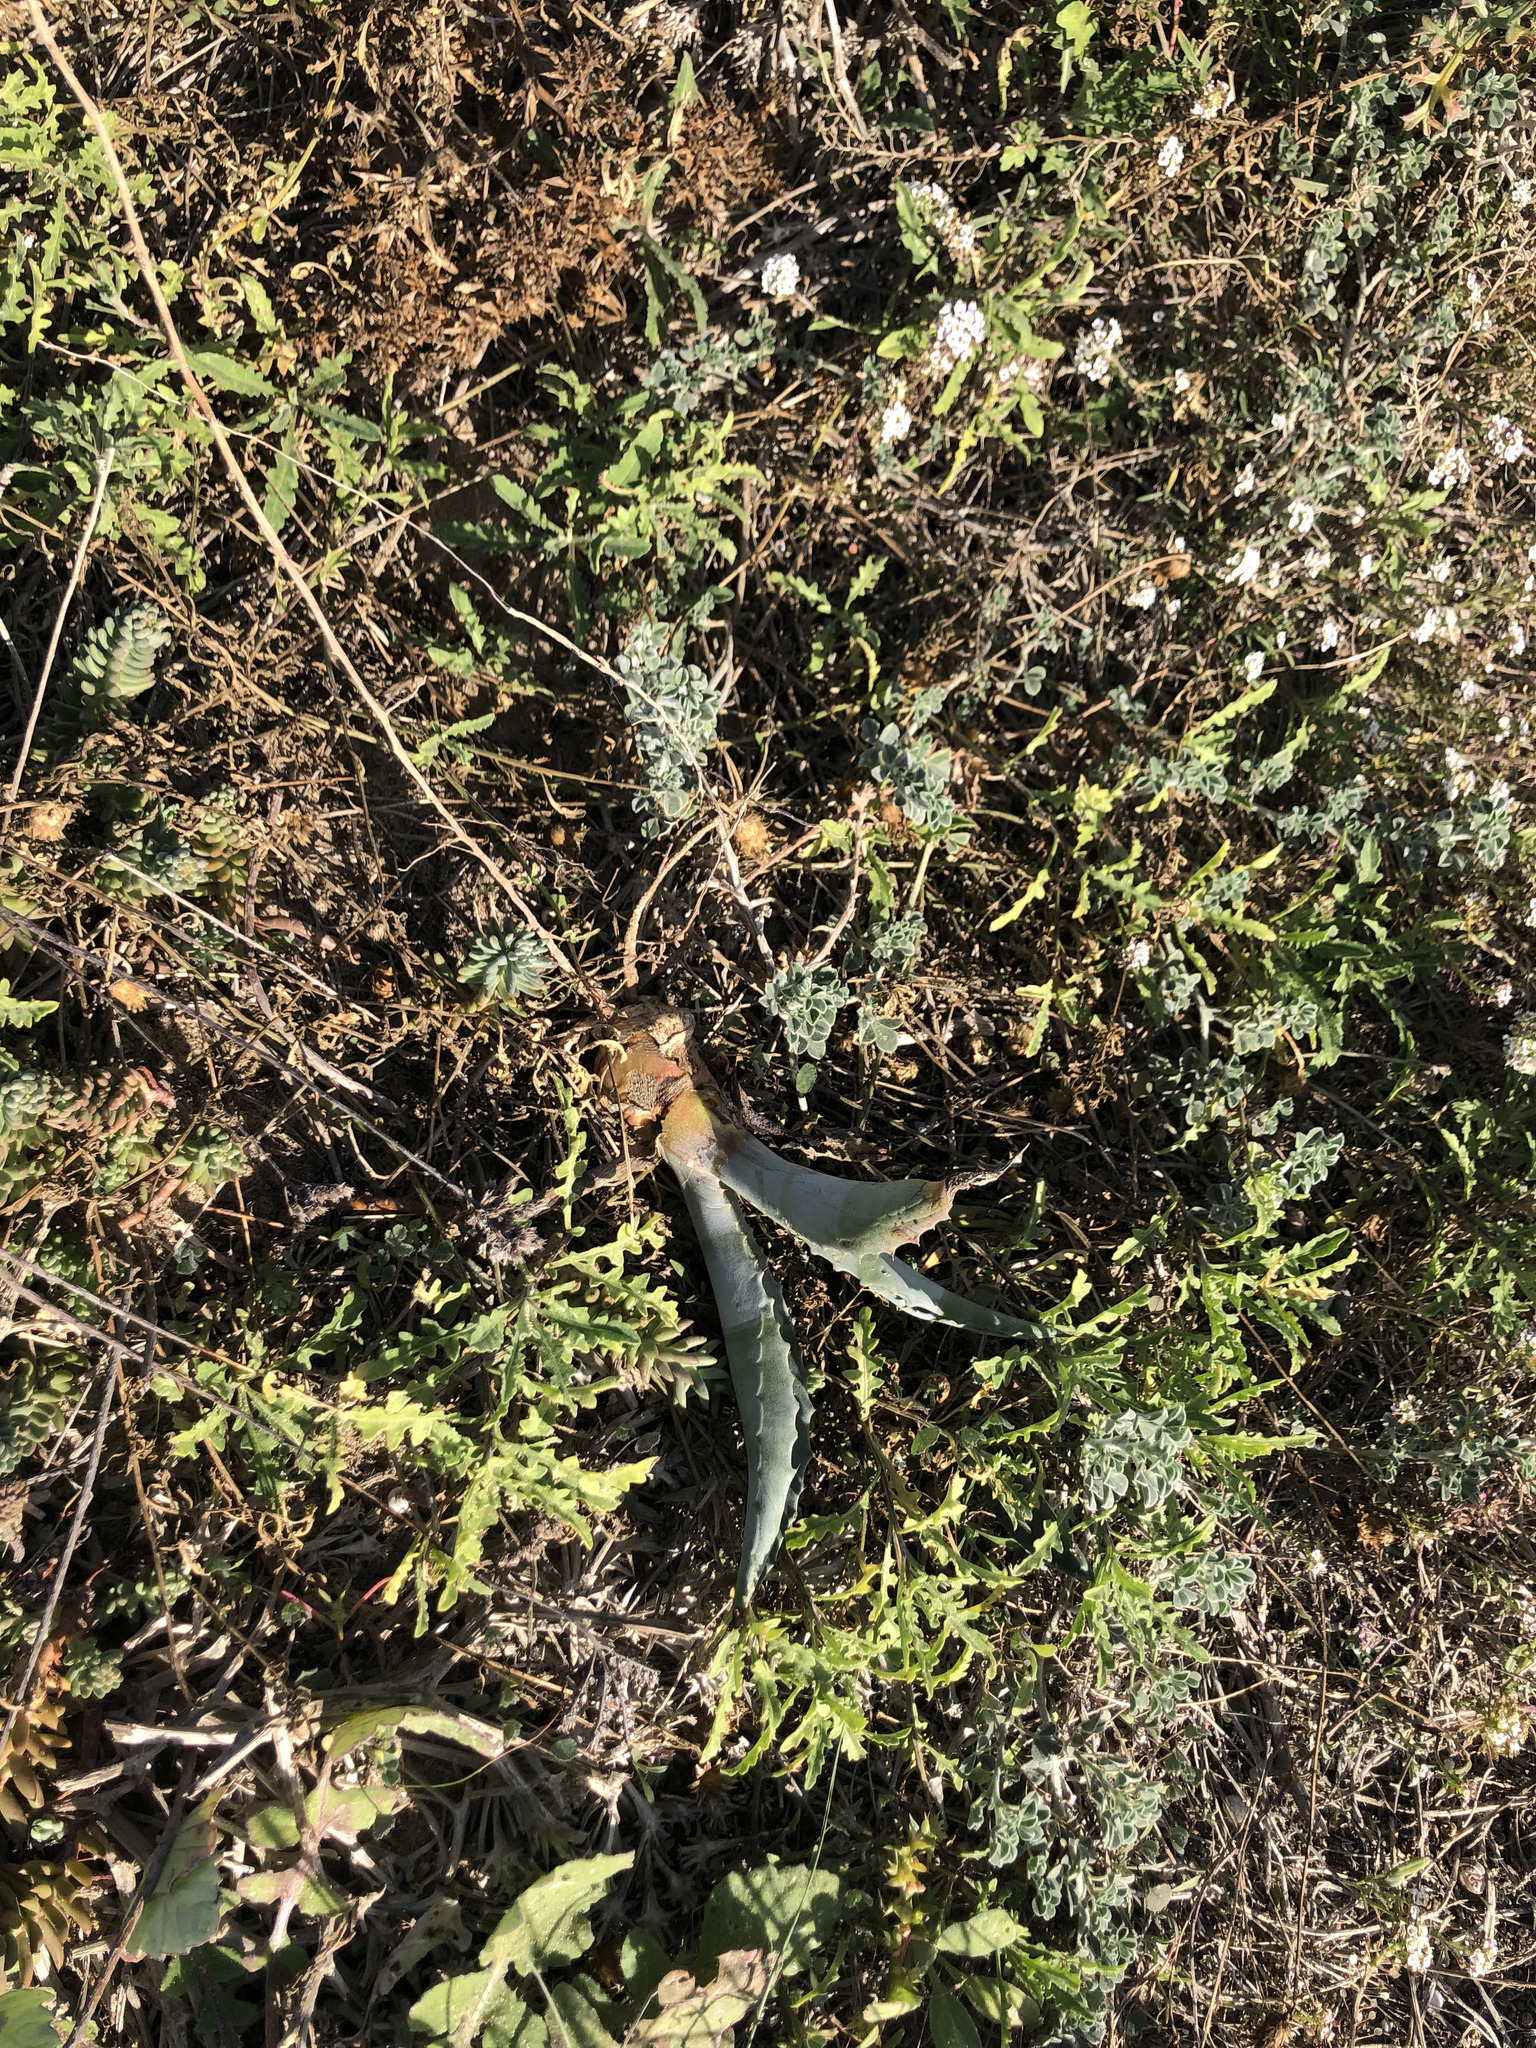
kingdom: Plantae
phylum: Tracheophyta
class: Liliopsida
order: Asparagales
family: Asparagaceae
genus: Agave
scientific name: Agave americana
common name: Centuryplant
